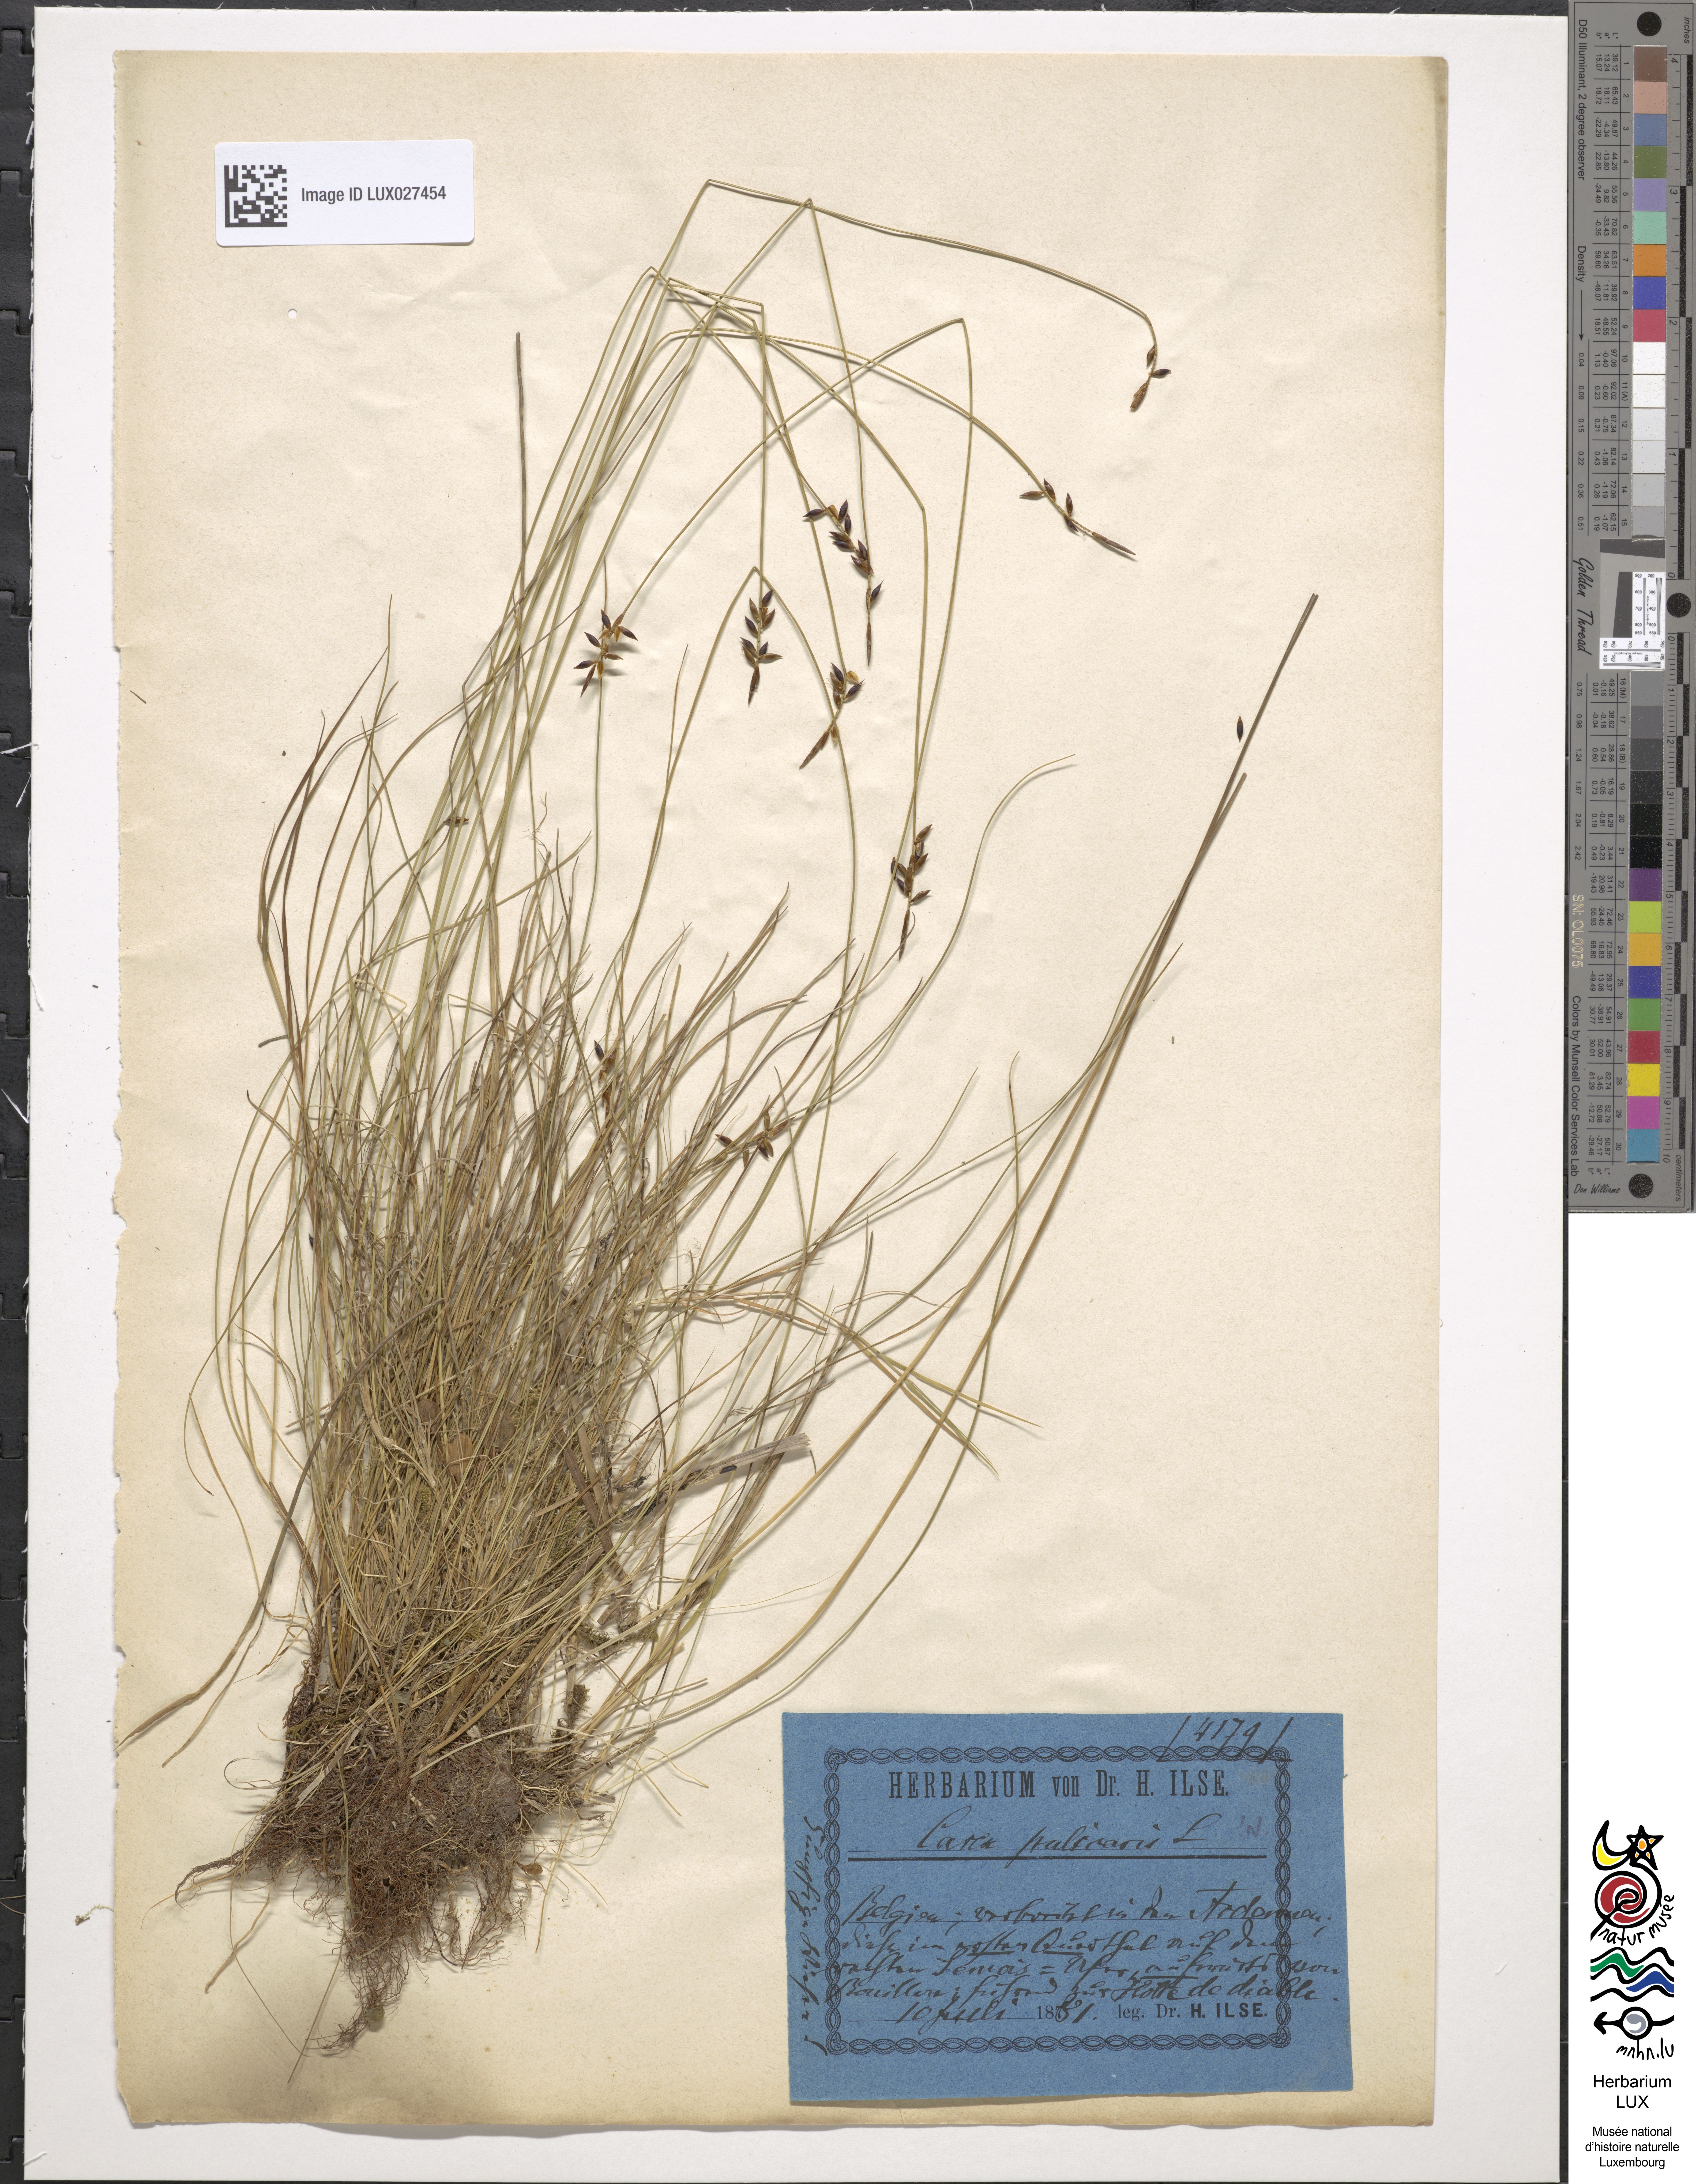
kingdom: Plantae
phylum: Tracheophyta
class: Liliopsida
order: Poales
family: Cyperaceae
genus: Carex
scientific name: Carex pulicaris
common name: Flea sedge
